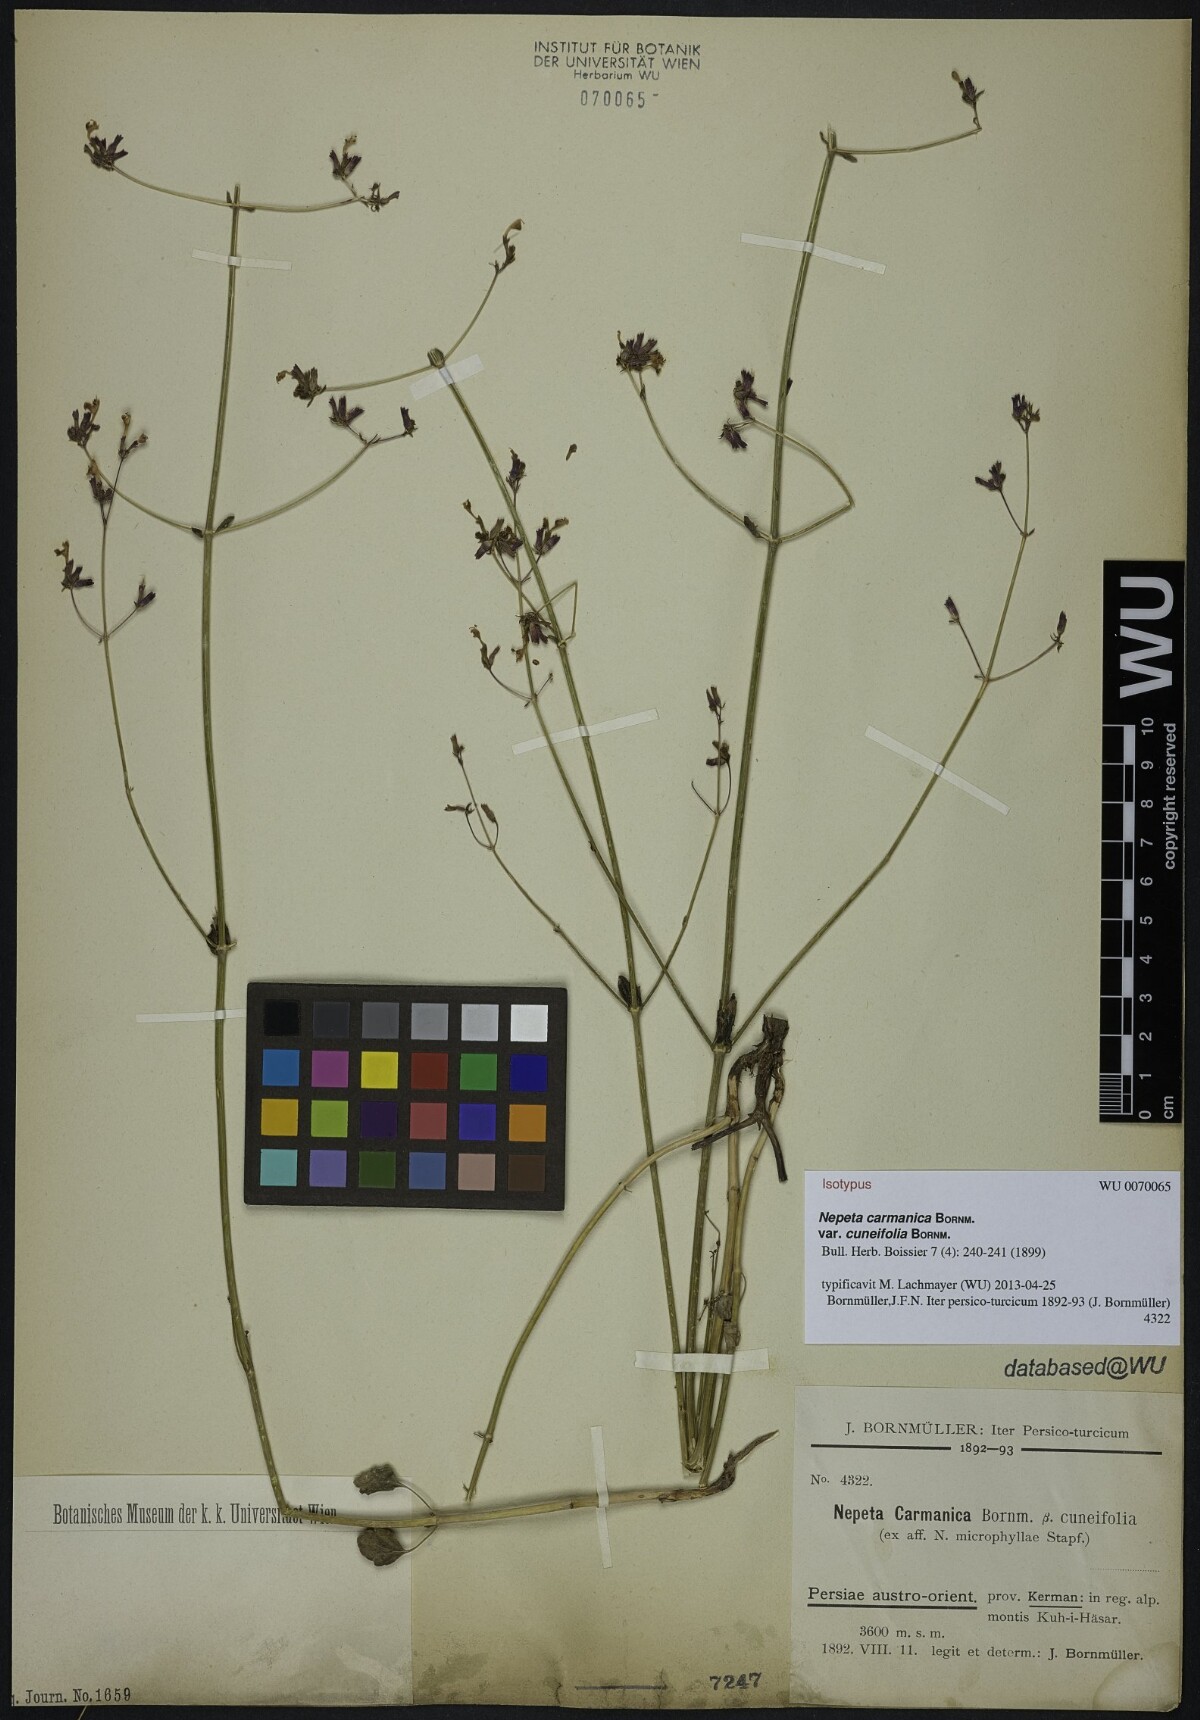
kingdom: Plantae
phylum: Tracheophyta
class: Magnoliopsida
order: Lamiales
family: Lamiaceae
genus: Nepeta
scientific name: Nepeta teucriifolia
